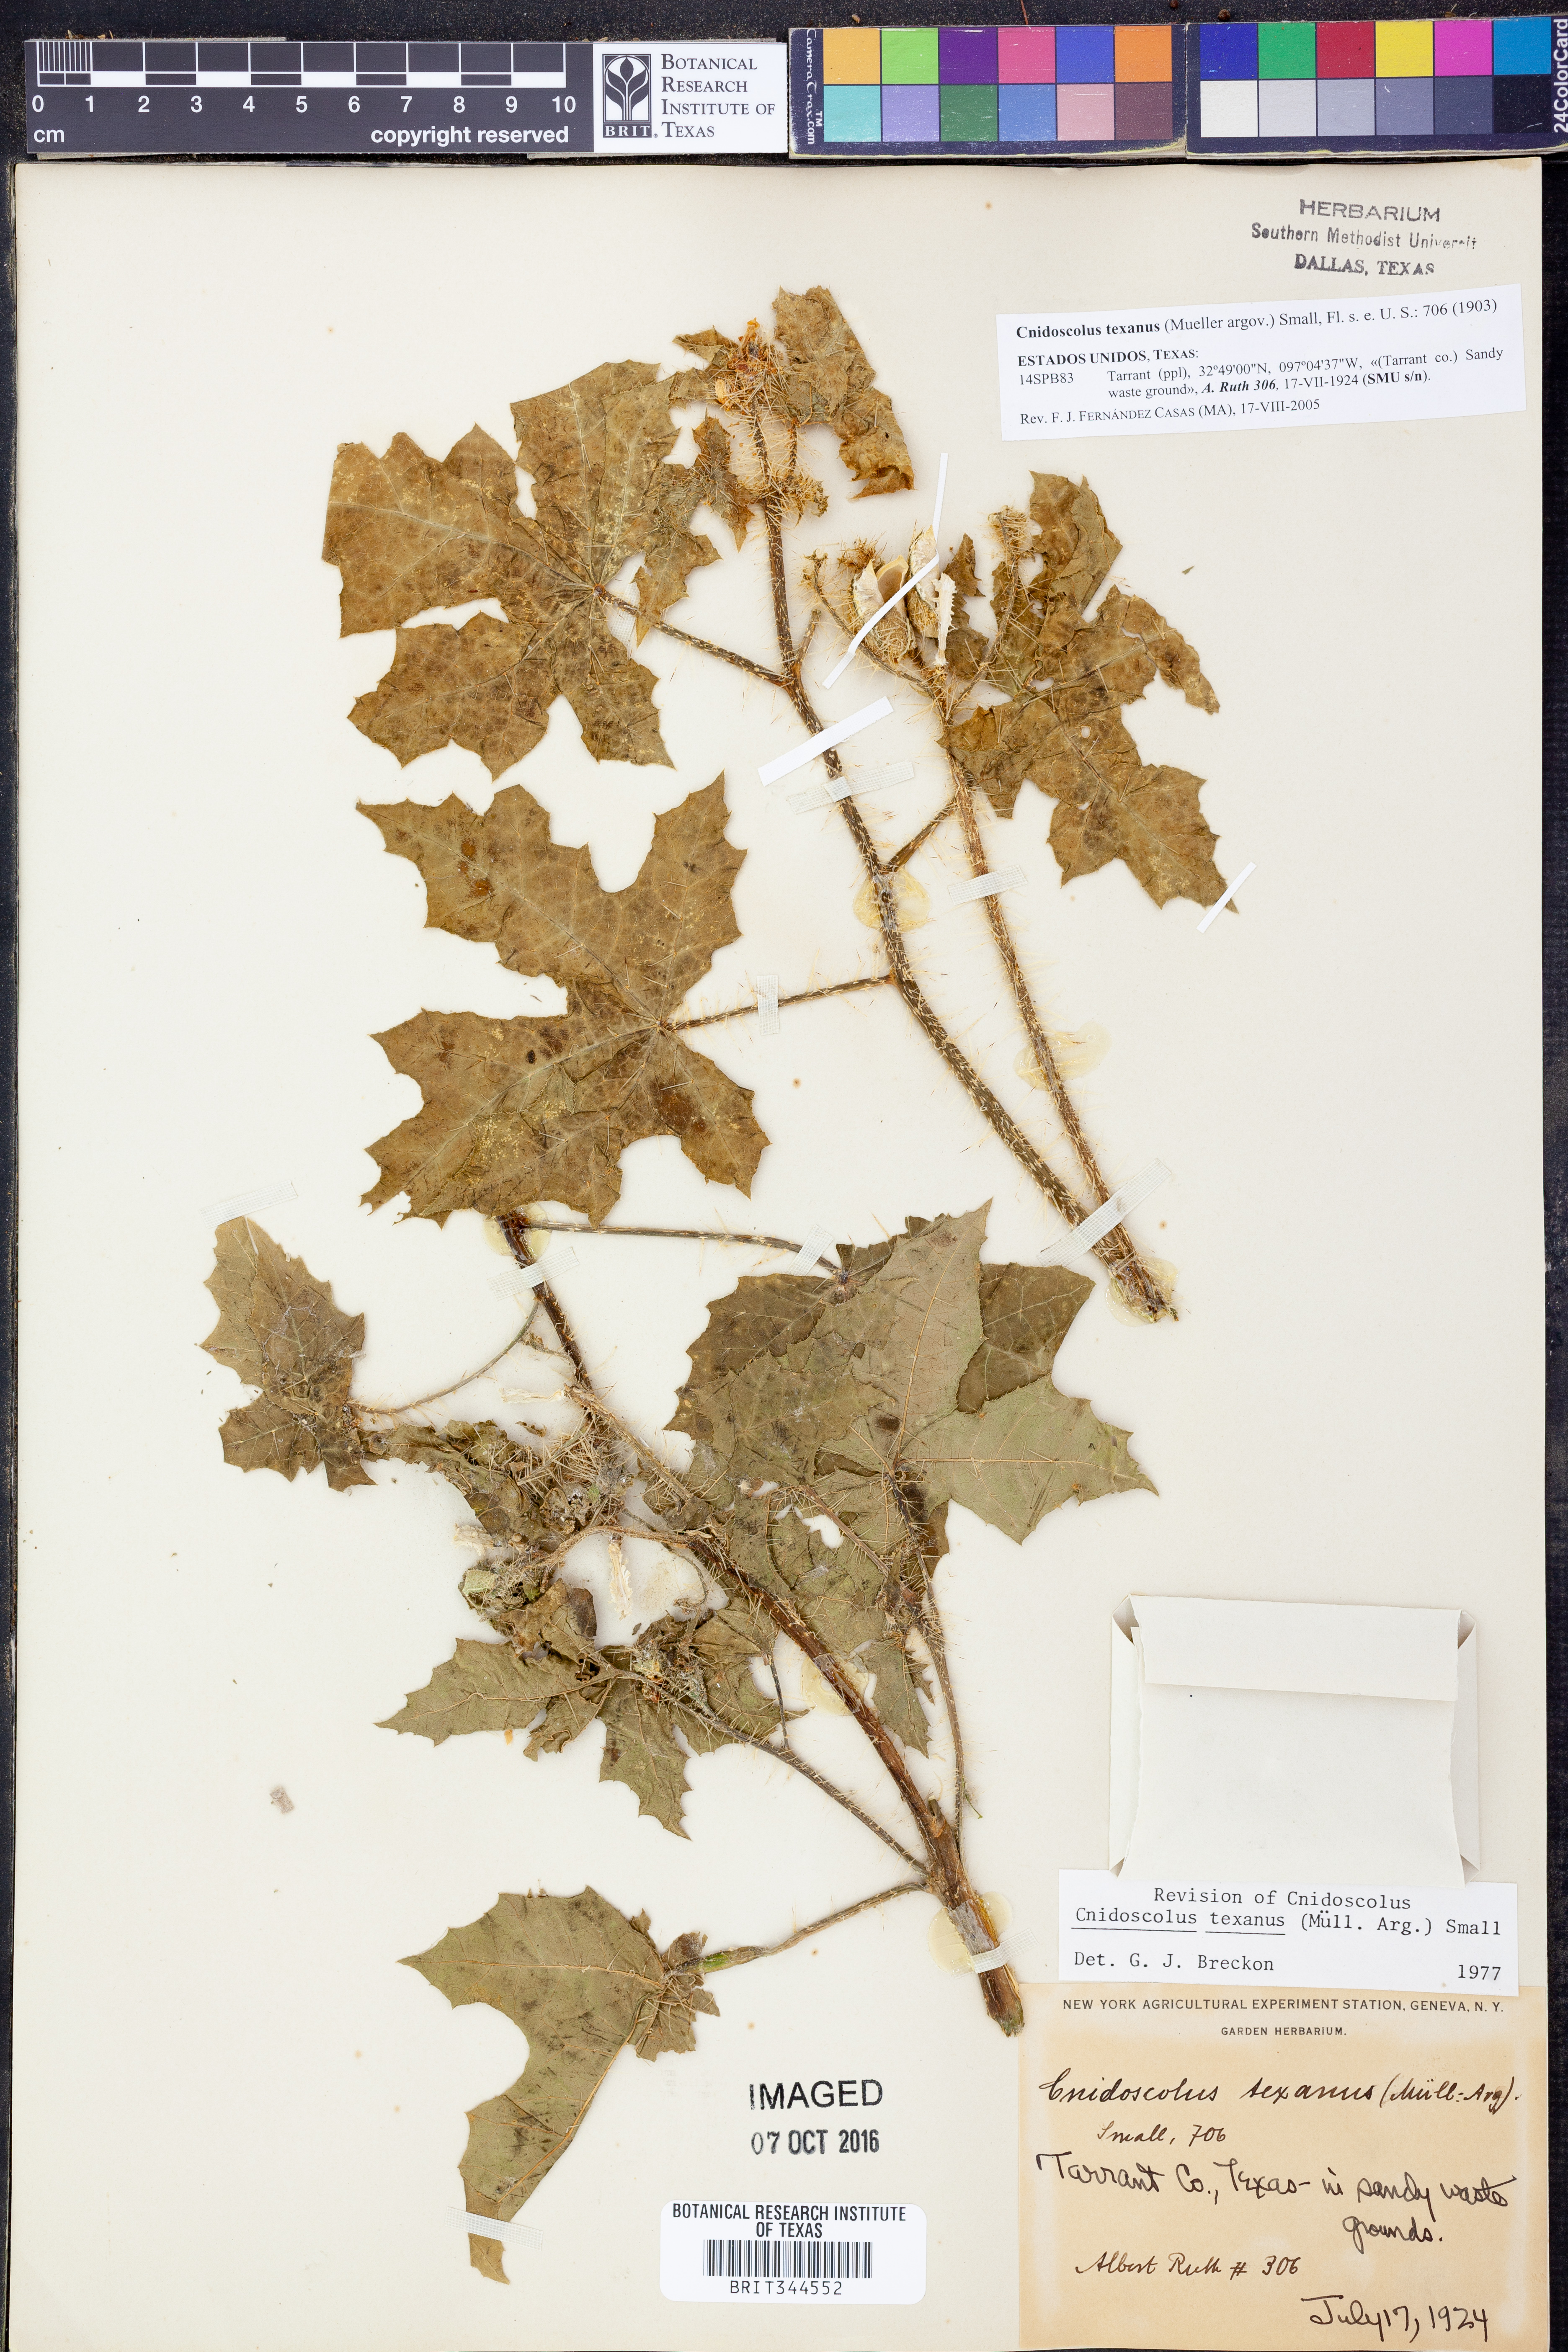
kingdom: Plantae
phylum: Tracheophyta
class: Magnoliopsida
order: Malpighiales
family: Euphorbiaceae
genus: Cnidoscolus
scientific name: Cnidoscolus texanus
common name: Texas bull-nettle
